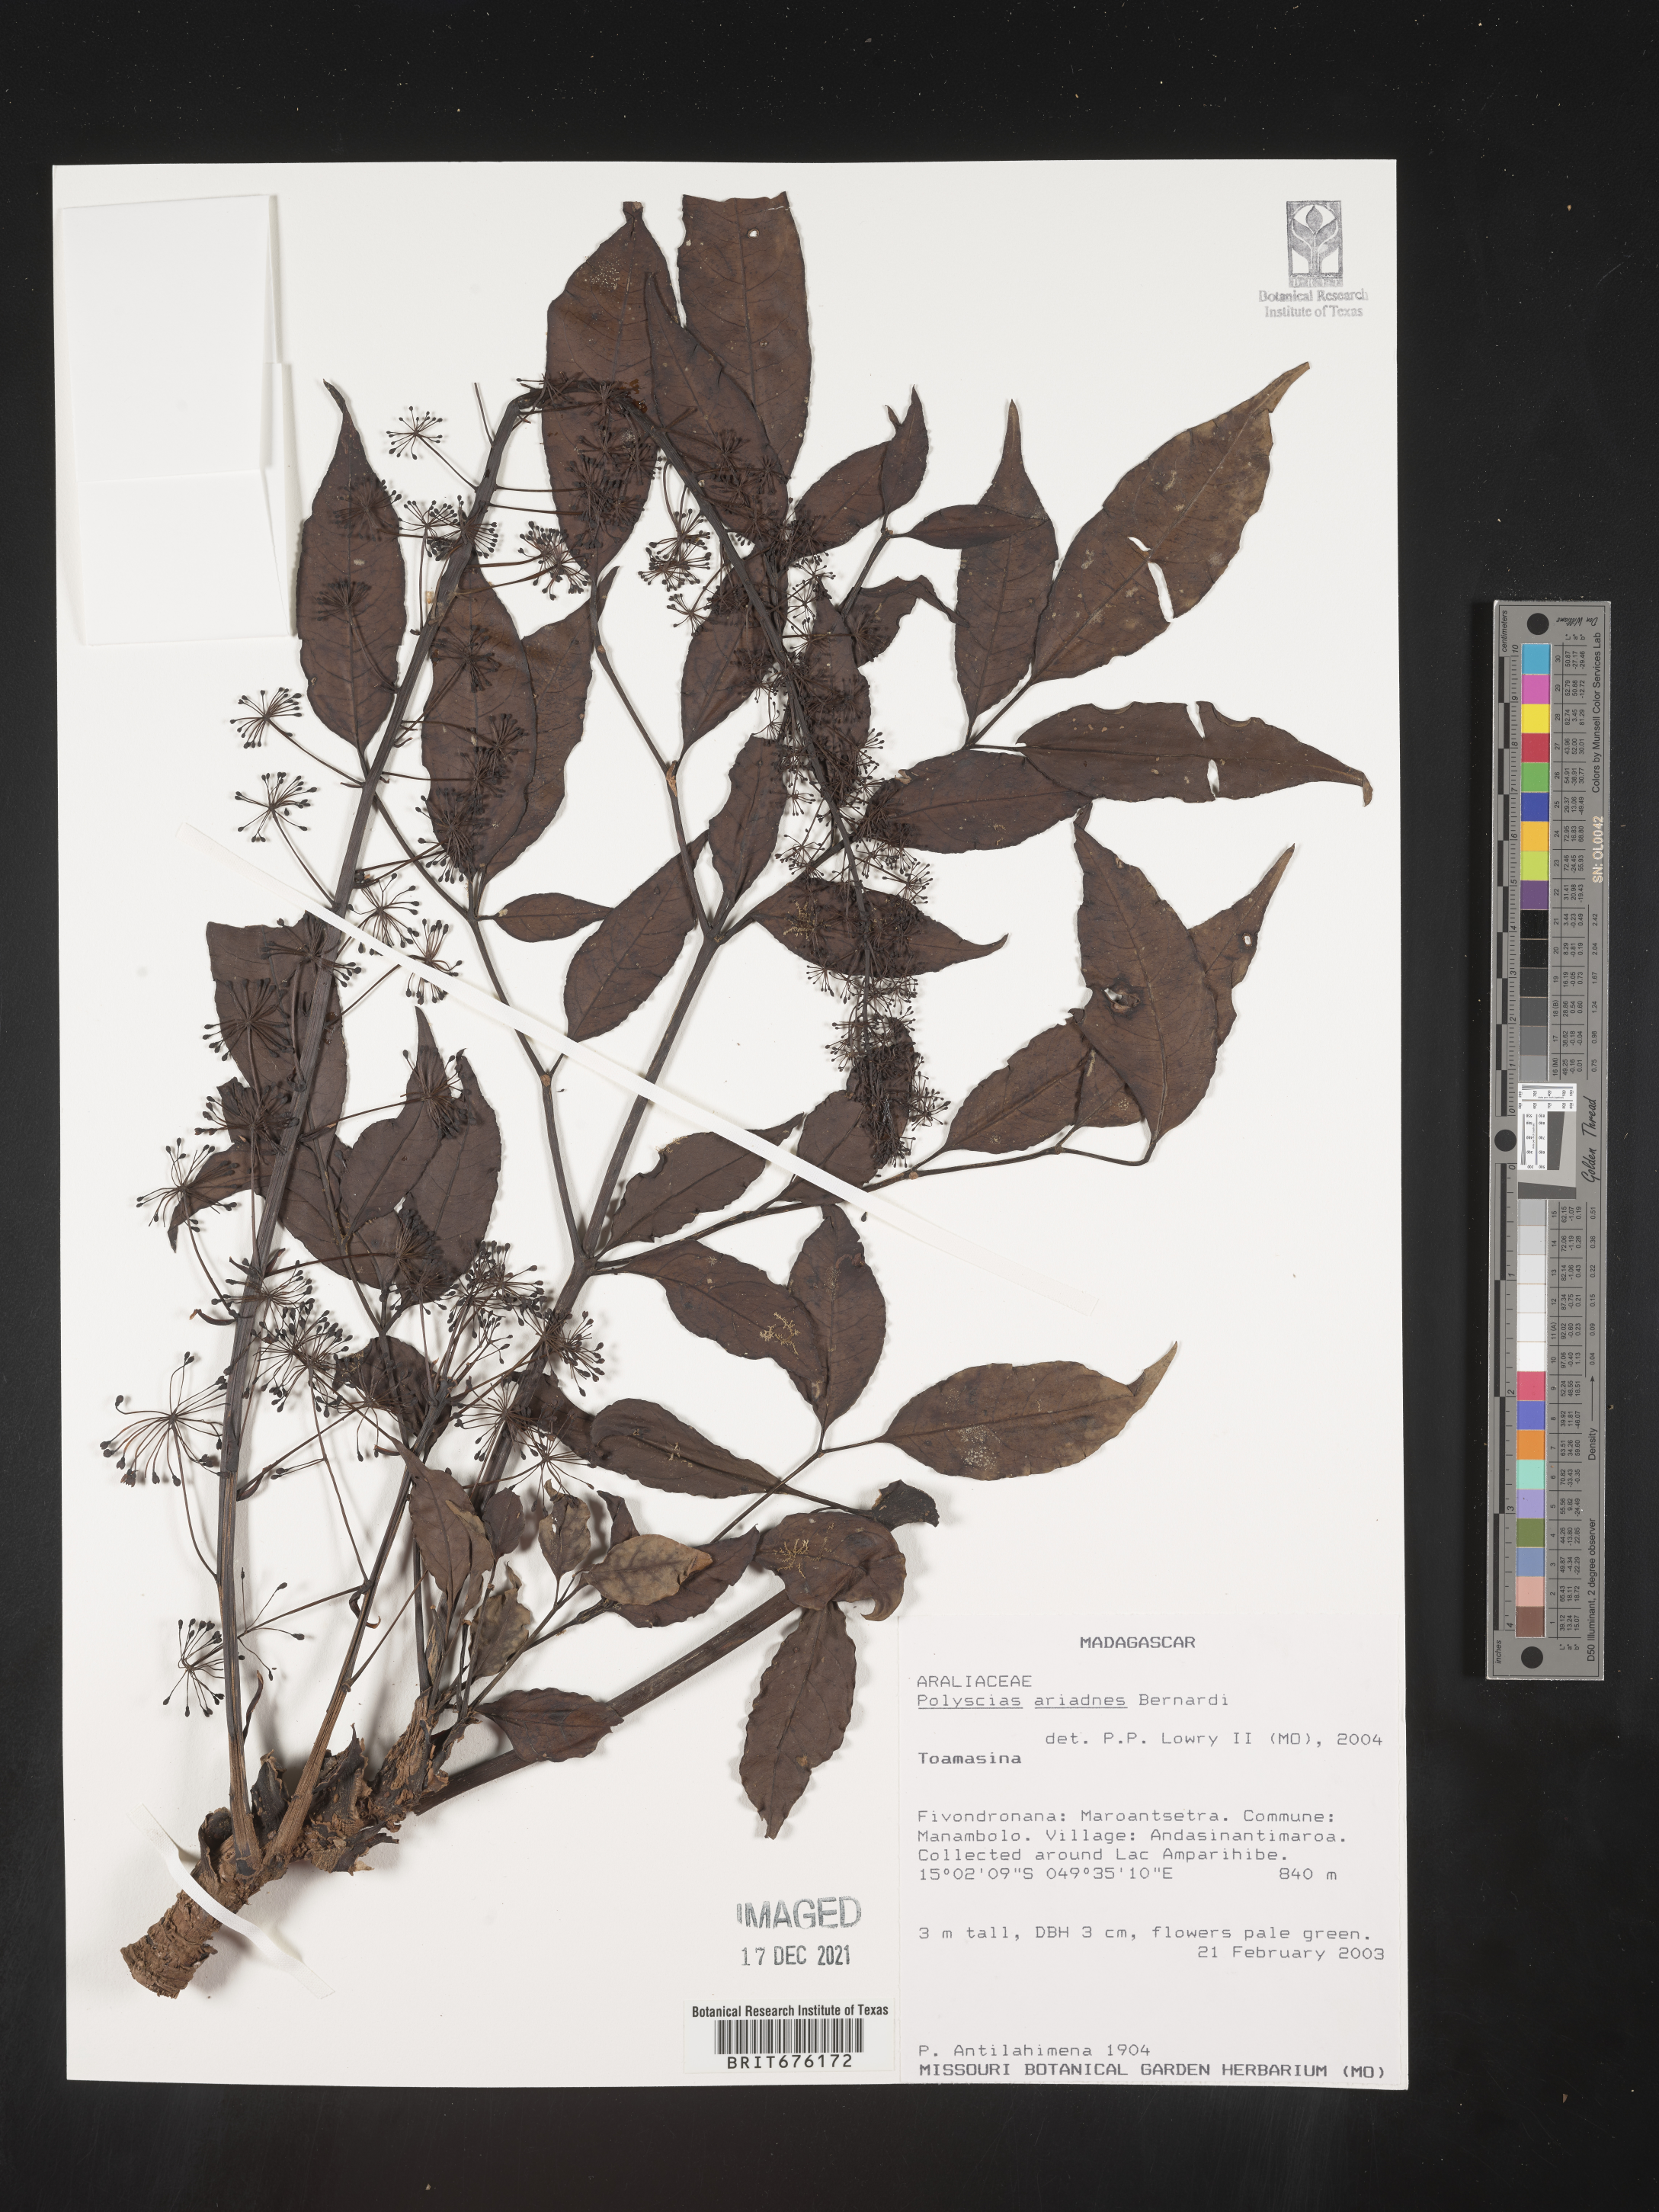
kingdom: Plantae
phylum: Tracheophyta
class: Magnoliopsida
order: Apiales
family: Araliaceae
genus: Polyscias
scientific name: Polyscias
